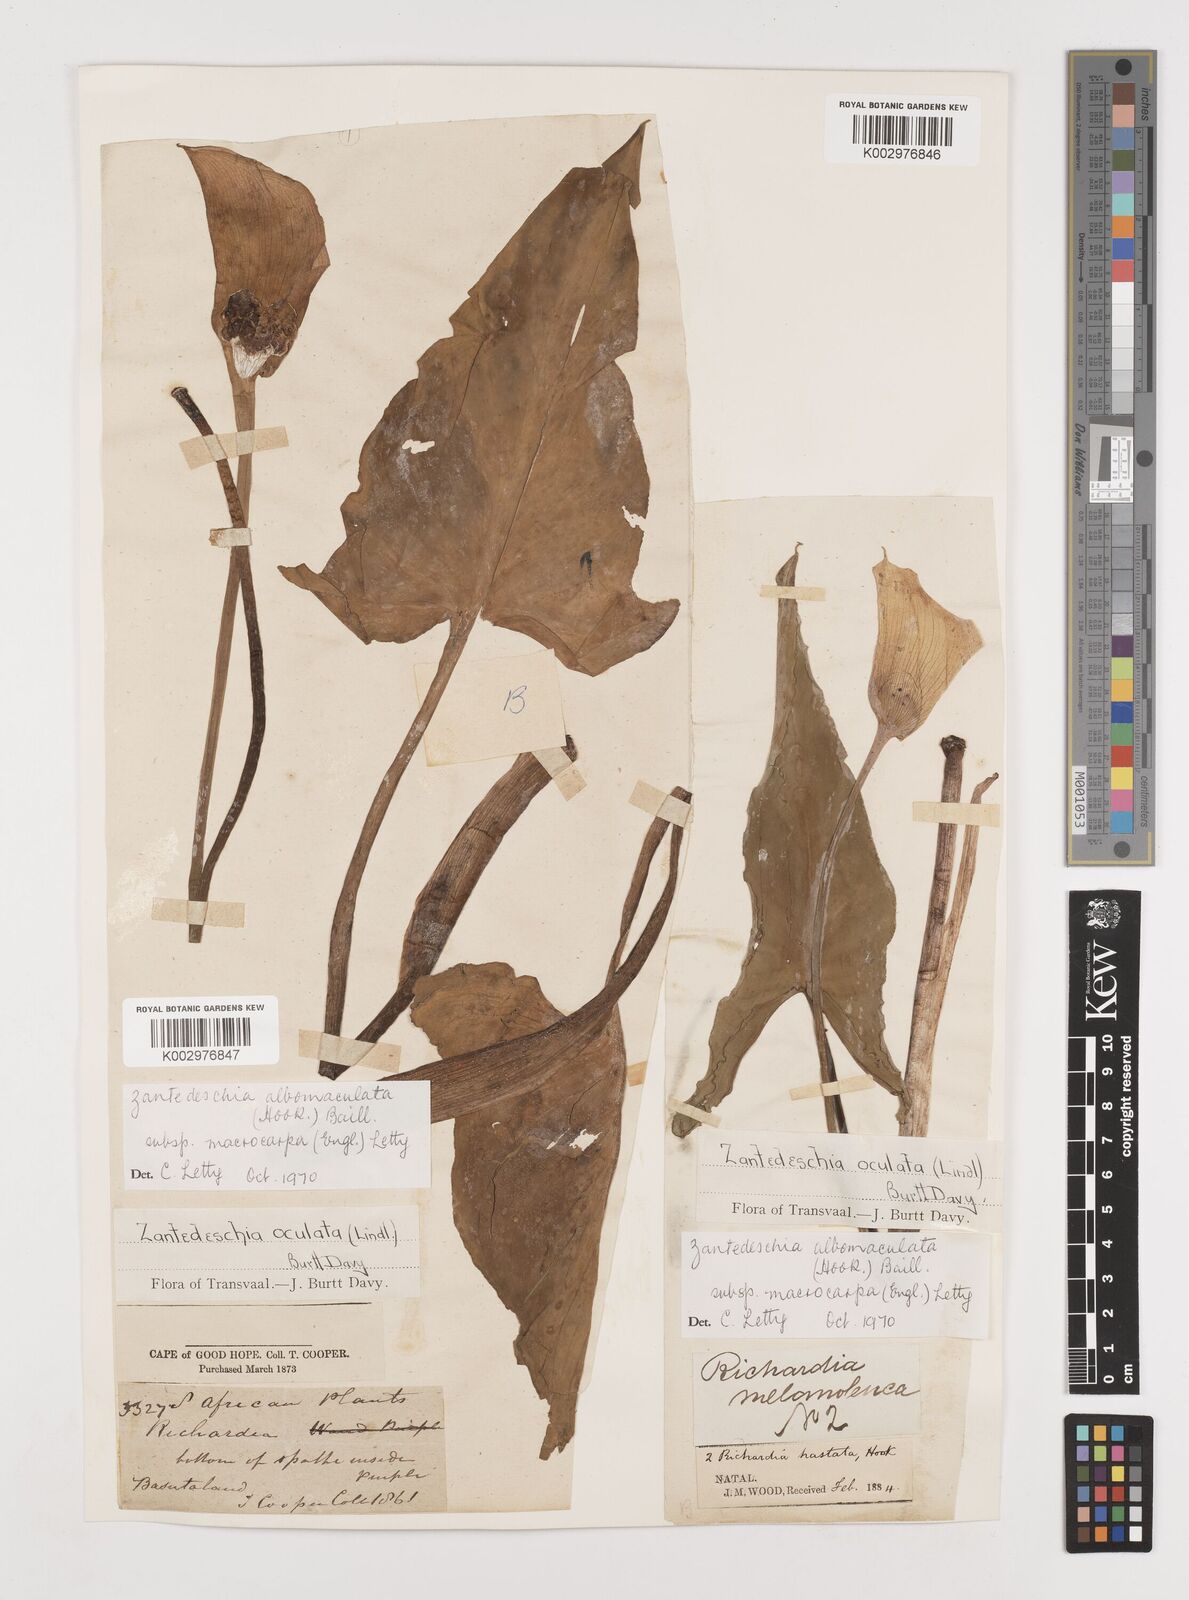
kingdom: Plantae
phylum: Tracheophyta
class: Liliopsida
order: Alismatales
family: Araceae
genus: Zantedeschia
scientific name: Zantedeschia albomaculata
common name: Spotted calla lily
